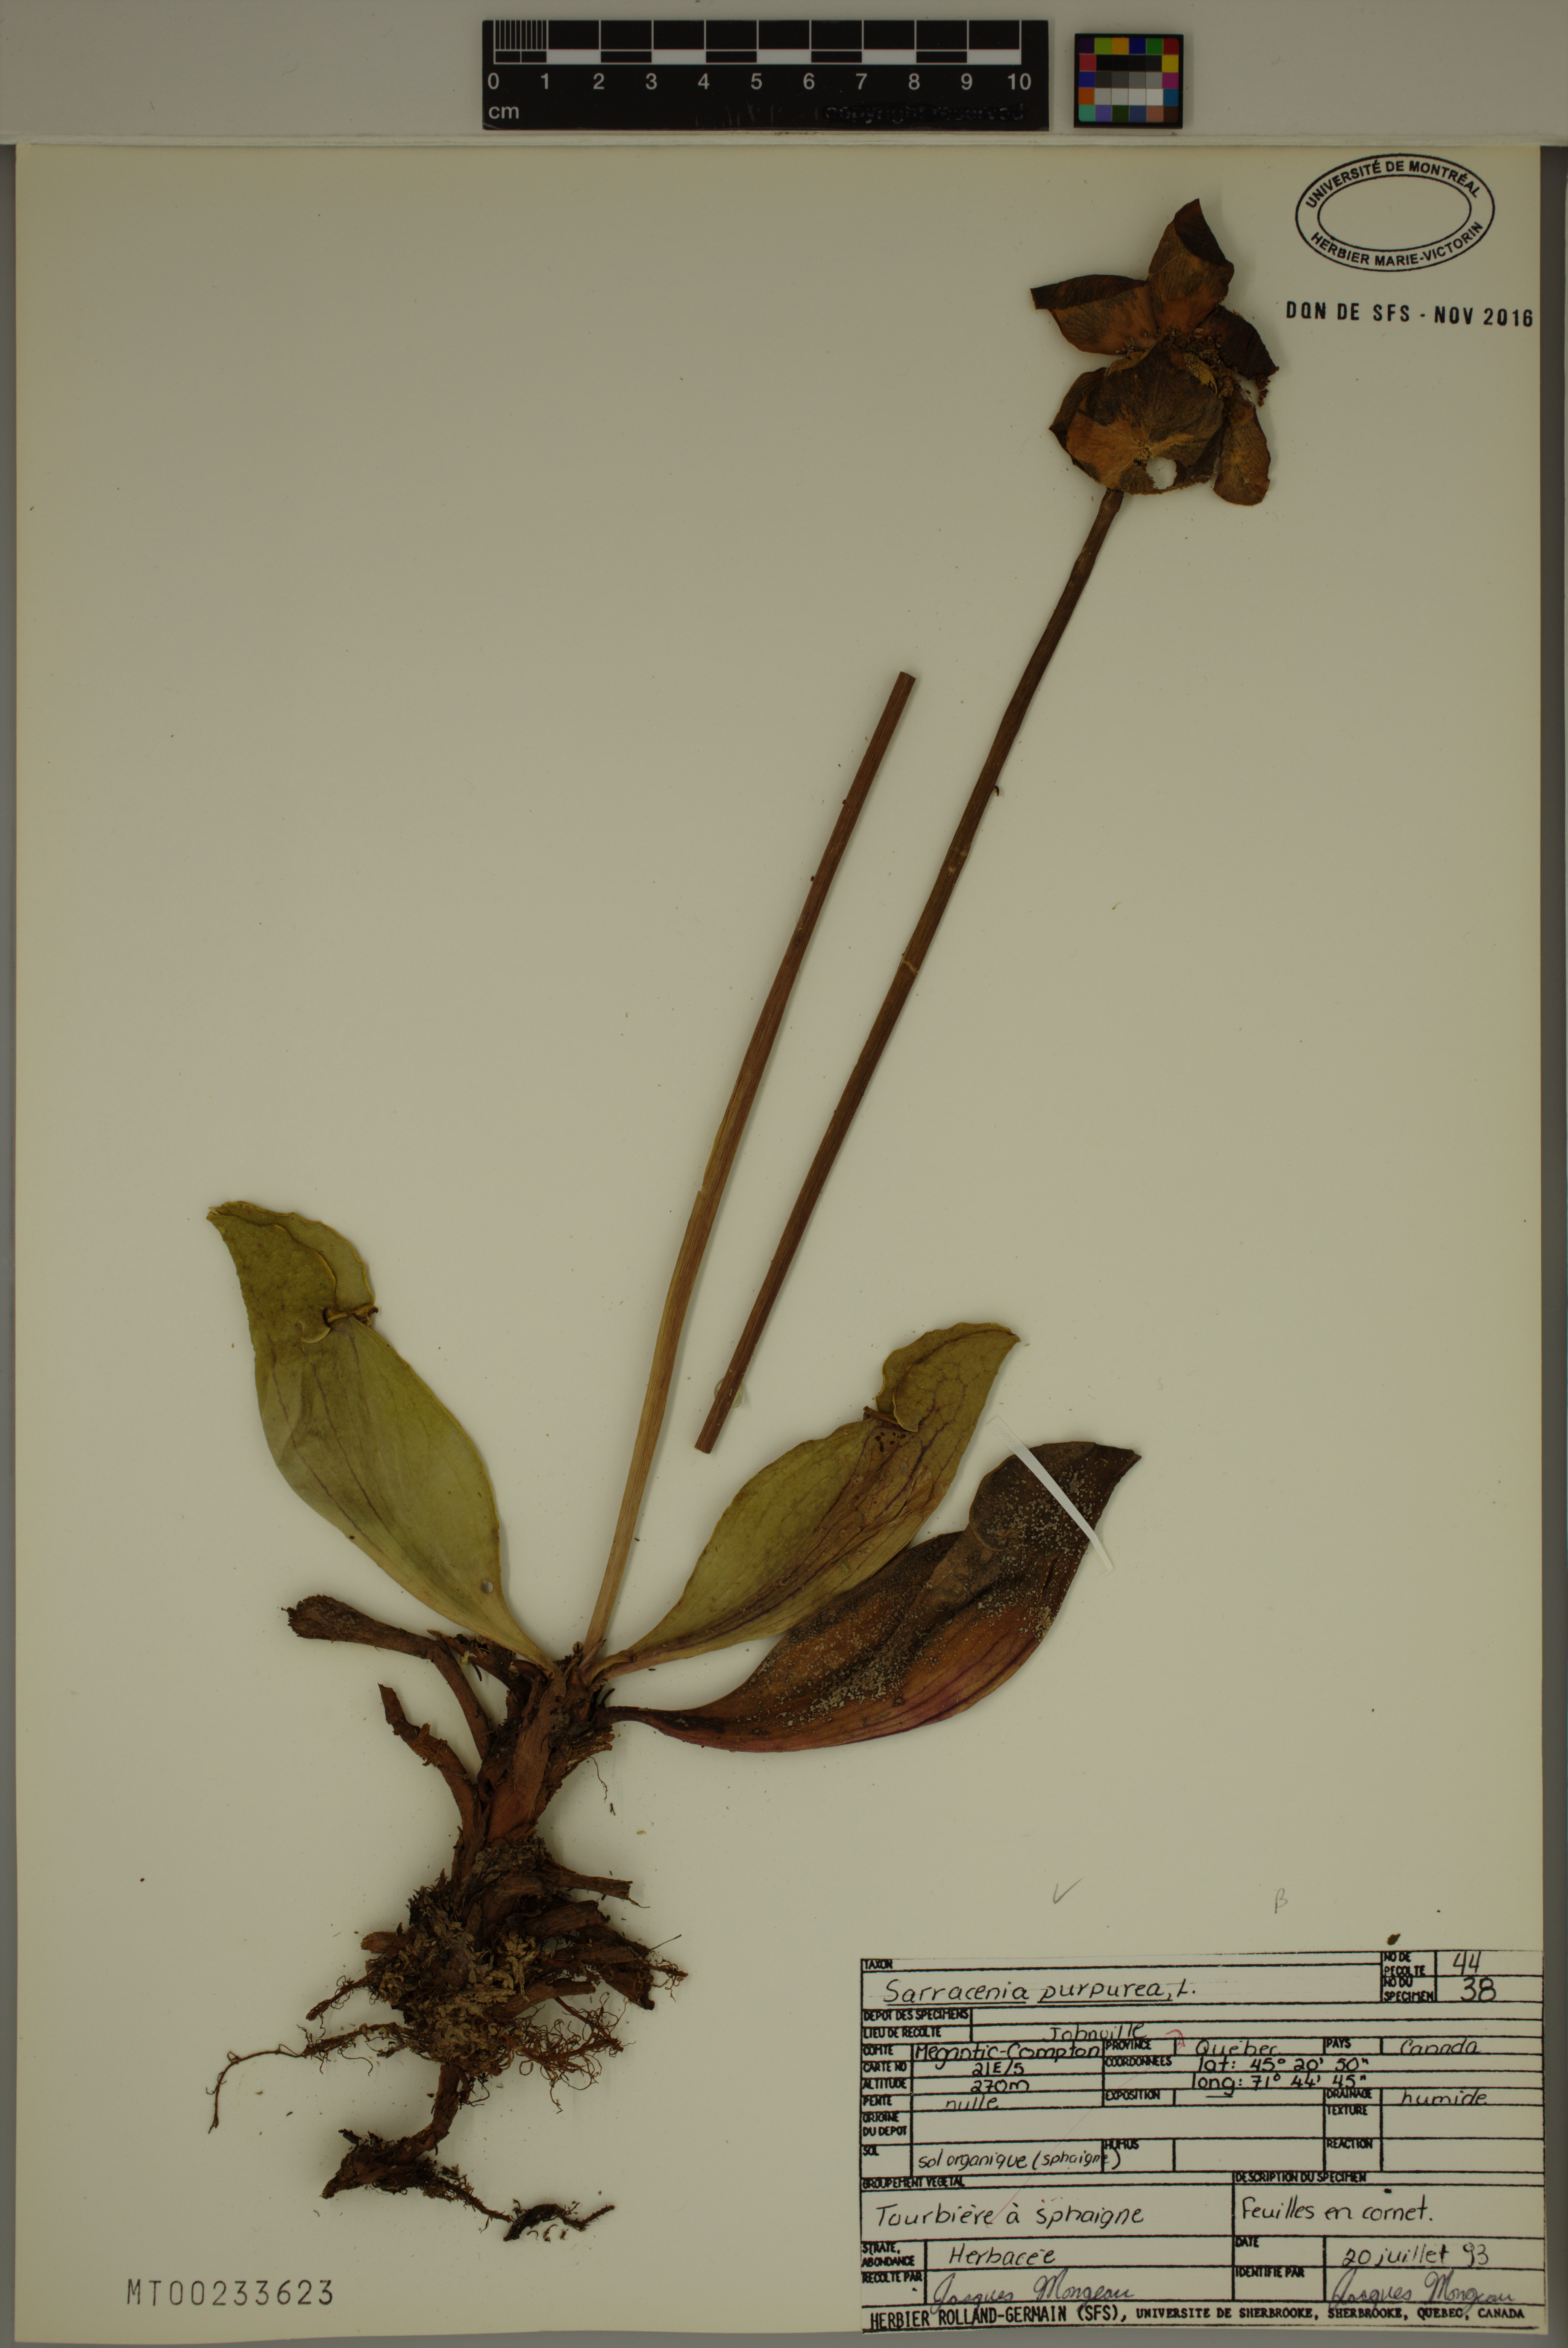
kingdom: Plantae
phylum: Tracheophyta
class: Magnoliopsida
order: Ericales
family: Sarraceniaceae
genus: Sarracenia
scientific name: Sarracenia purpurea
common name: Pitcherplant
